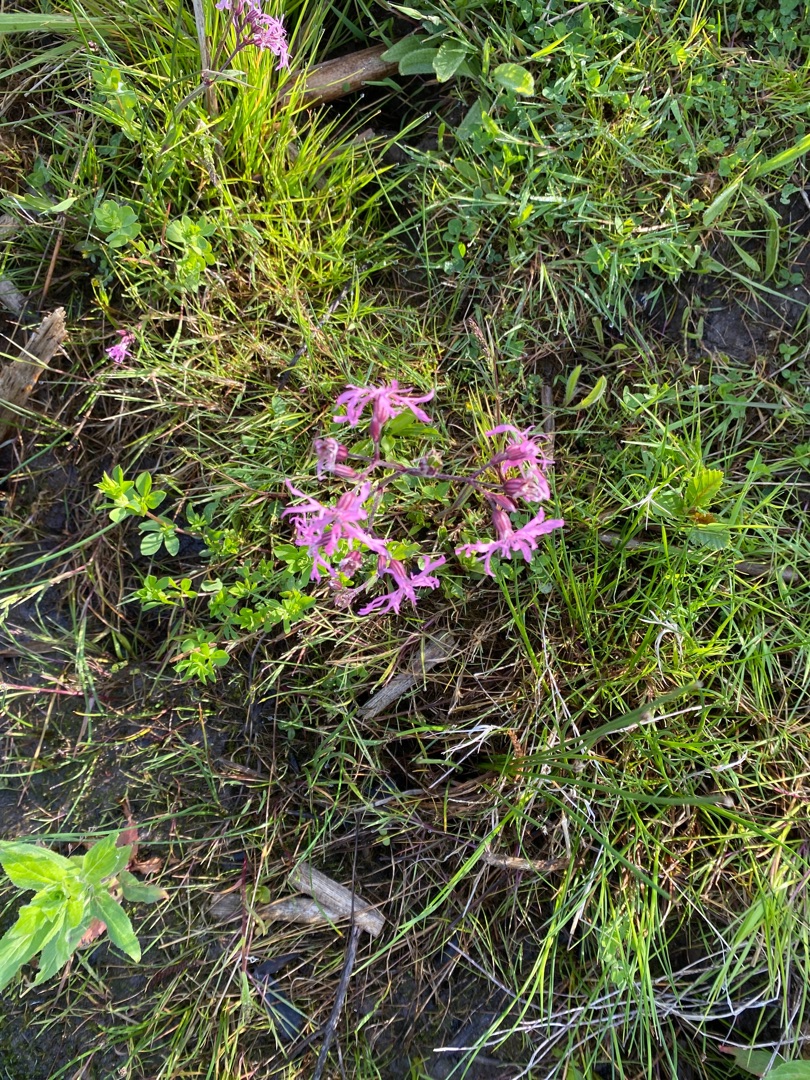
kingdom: Plantae
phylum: Tracheophyta
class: Magnoliopsida
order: Caryophyllales
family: Caryophyllaceae
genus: Silene
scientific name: Silene flos-cuculi
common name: Trævlekrone
